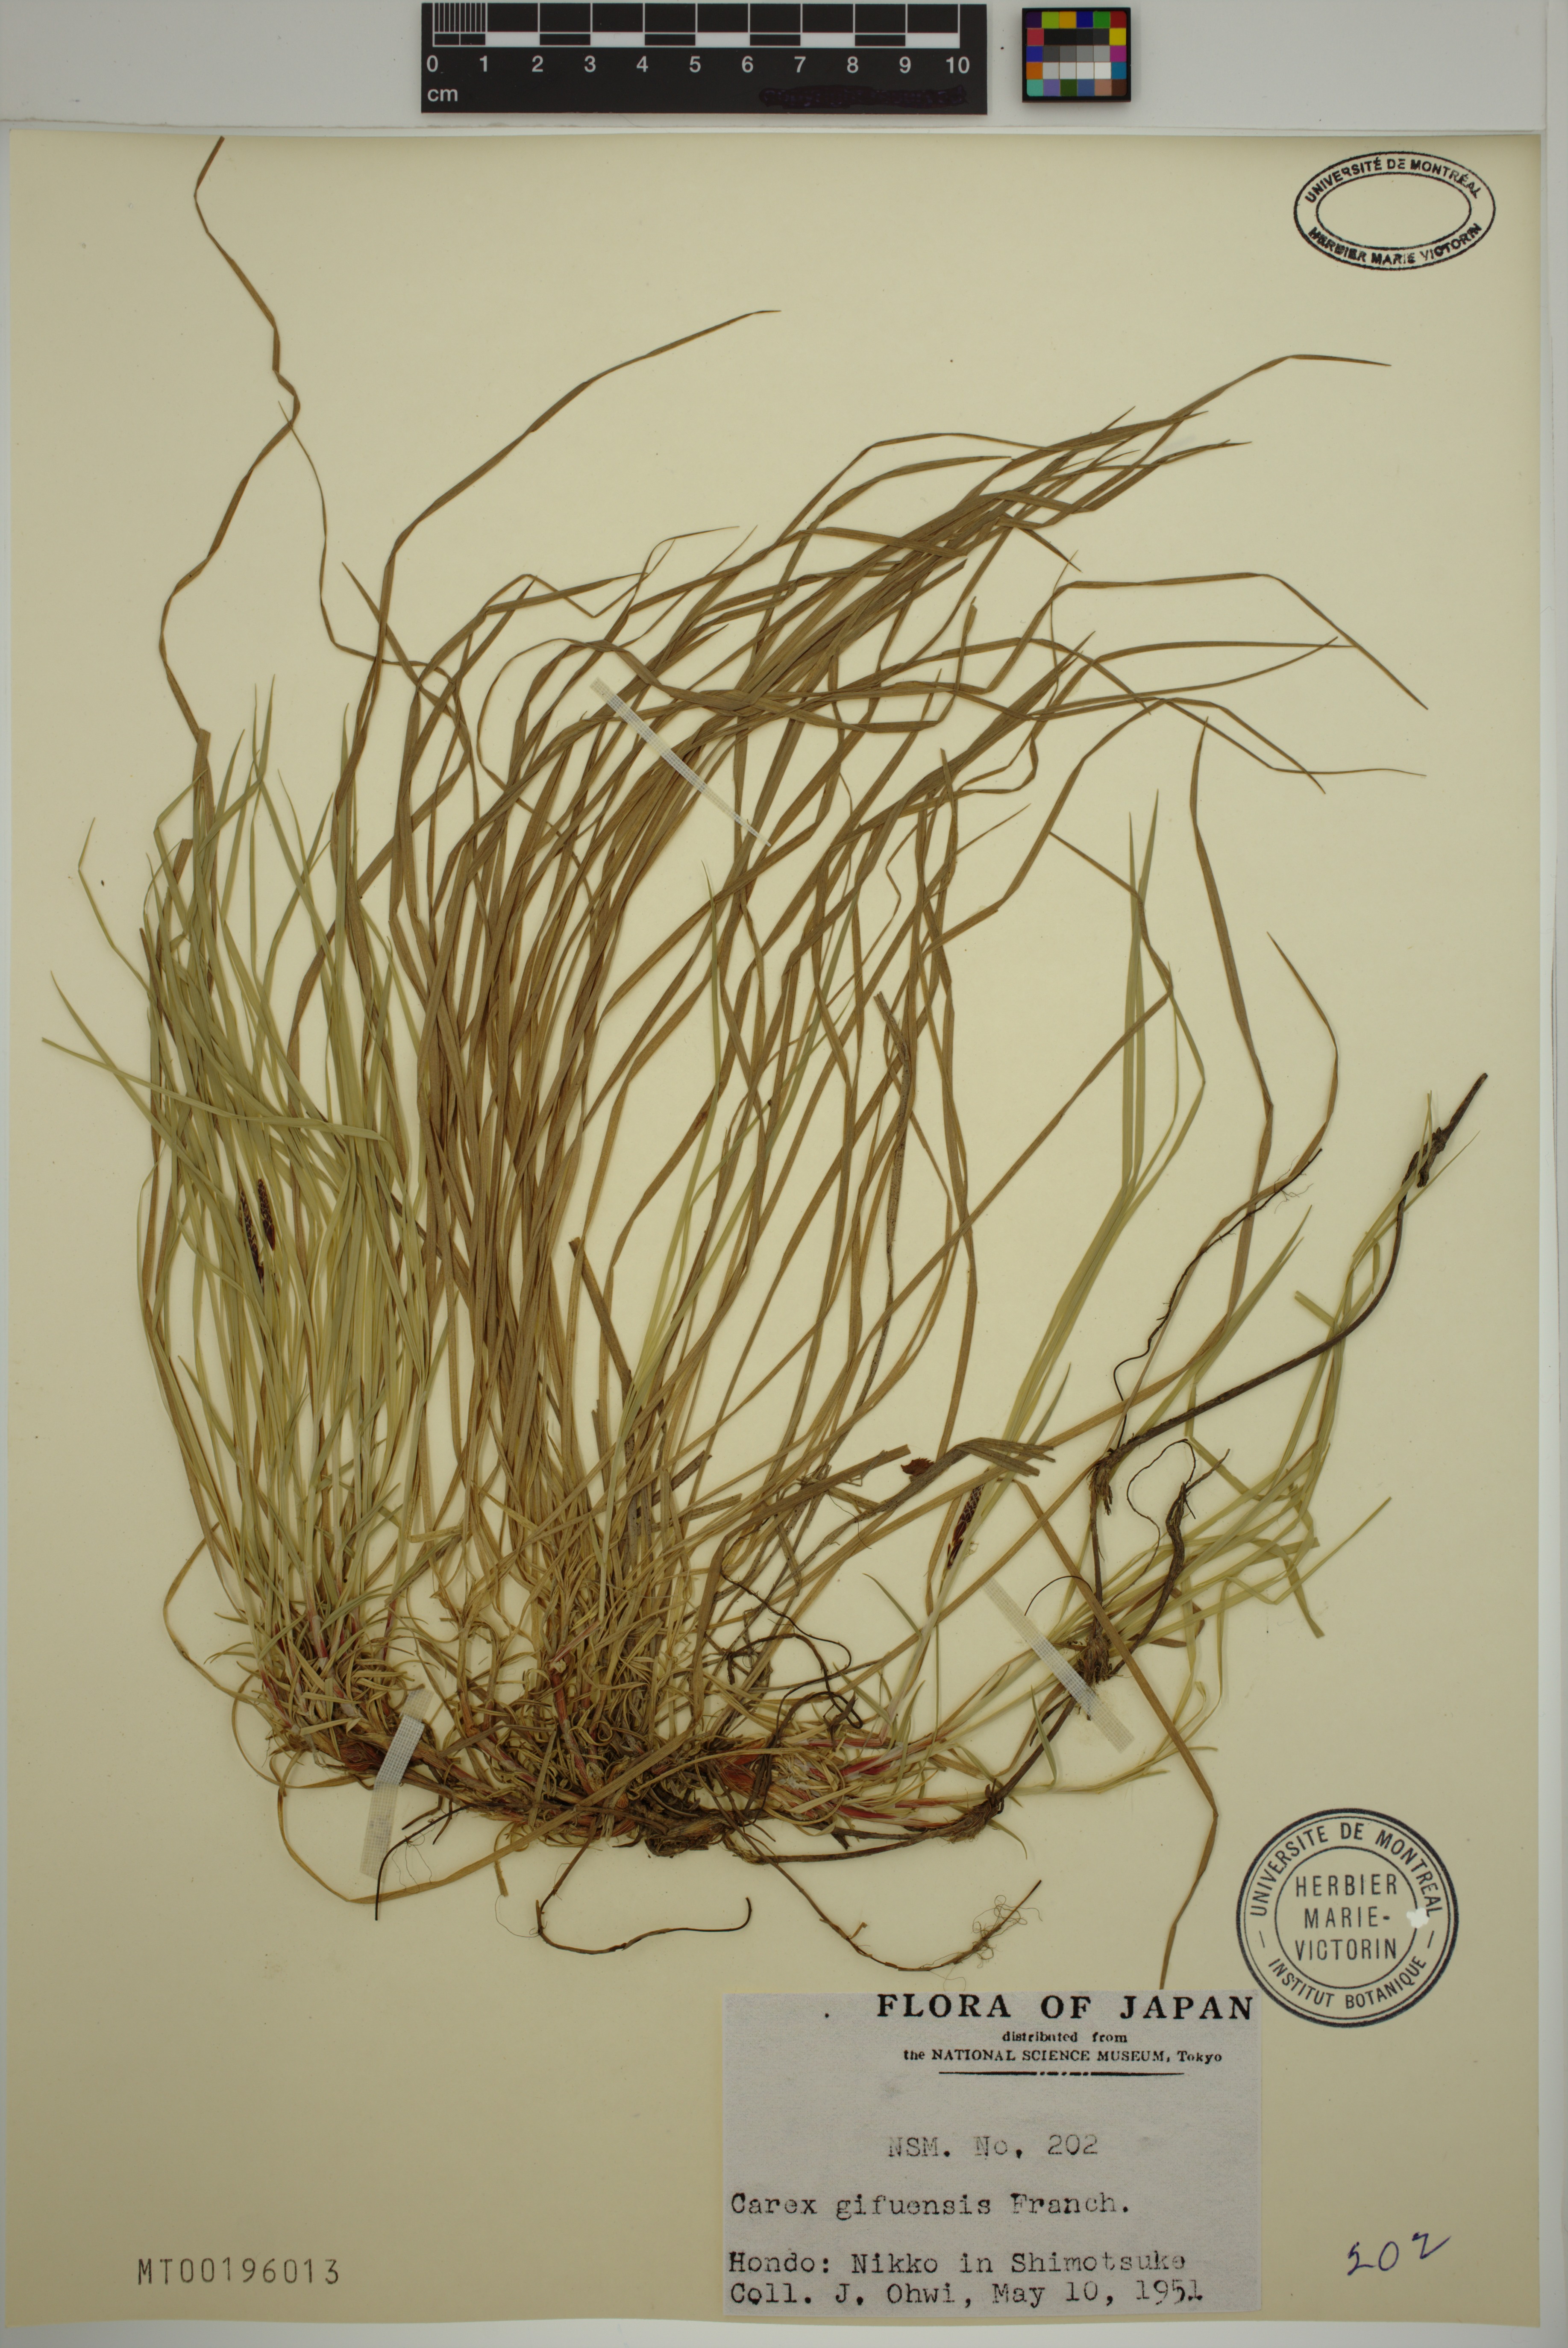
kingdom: Plantae
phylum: Tracheophyta
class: Liliopsida
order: Poales
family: Cyperaceae
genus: Carex
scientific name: Carex gifuensis
